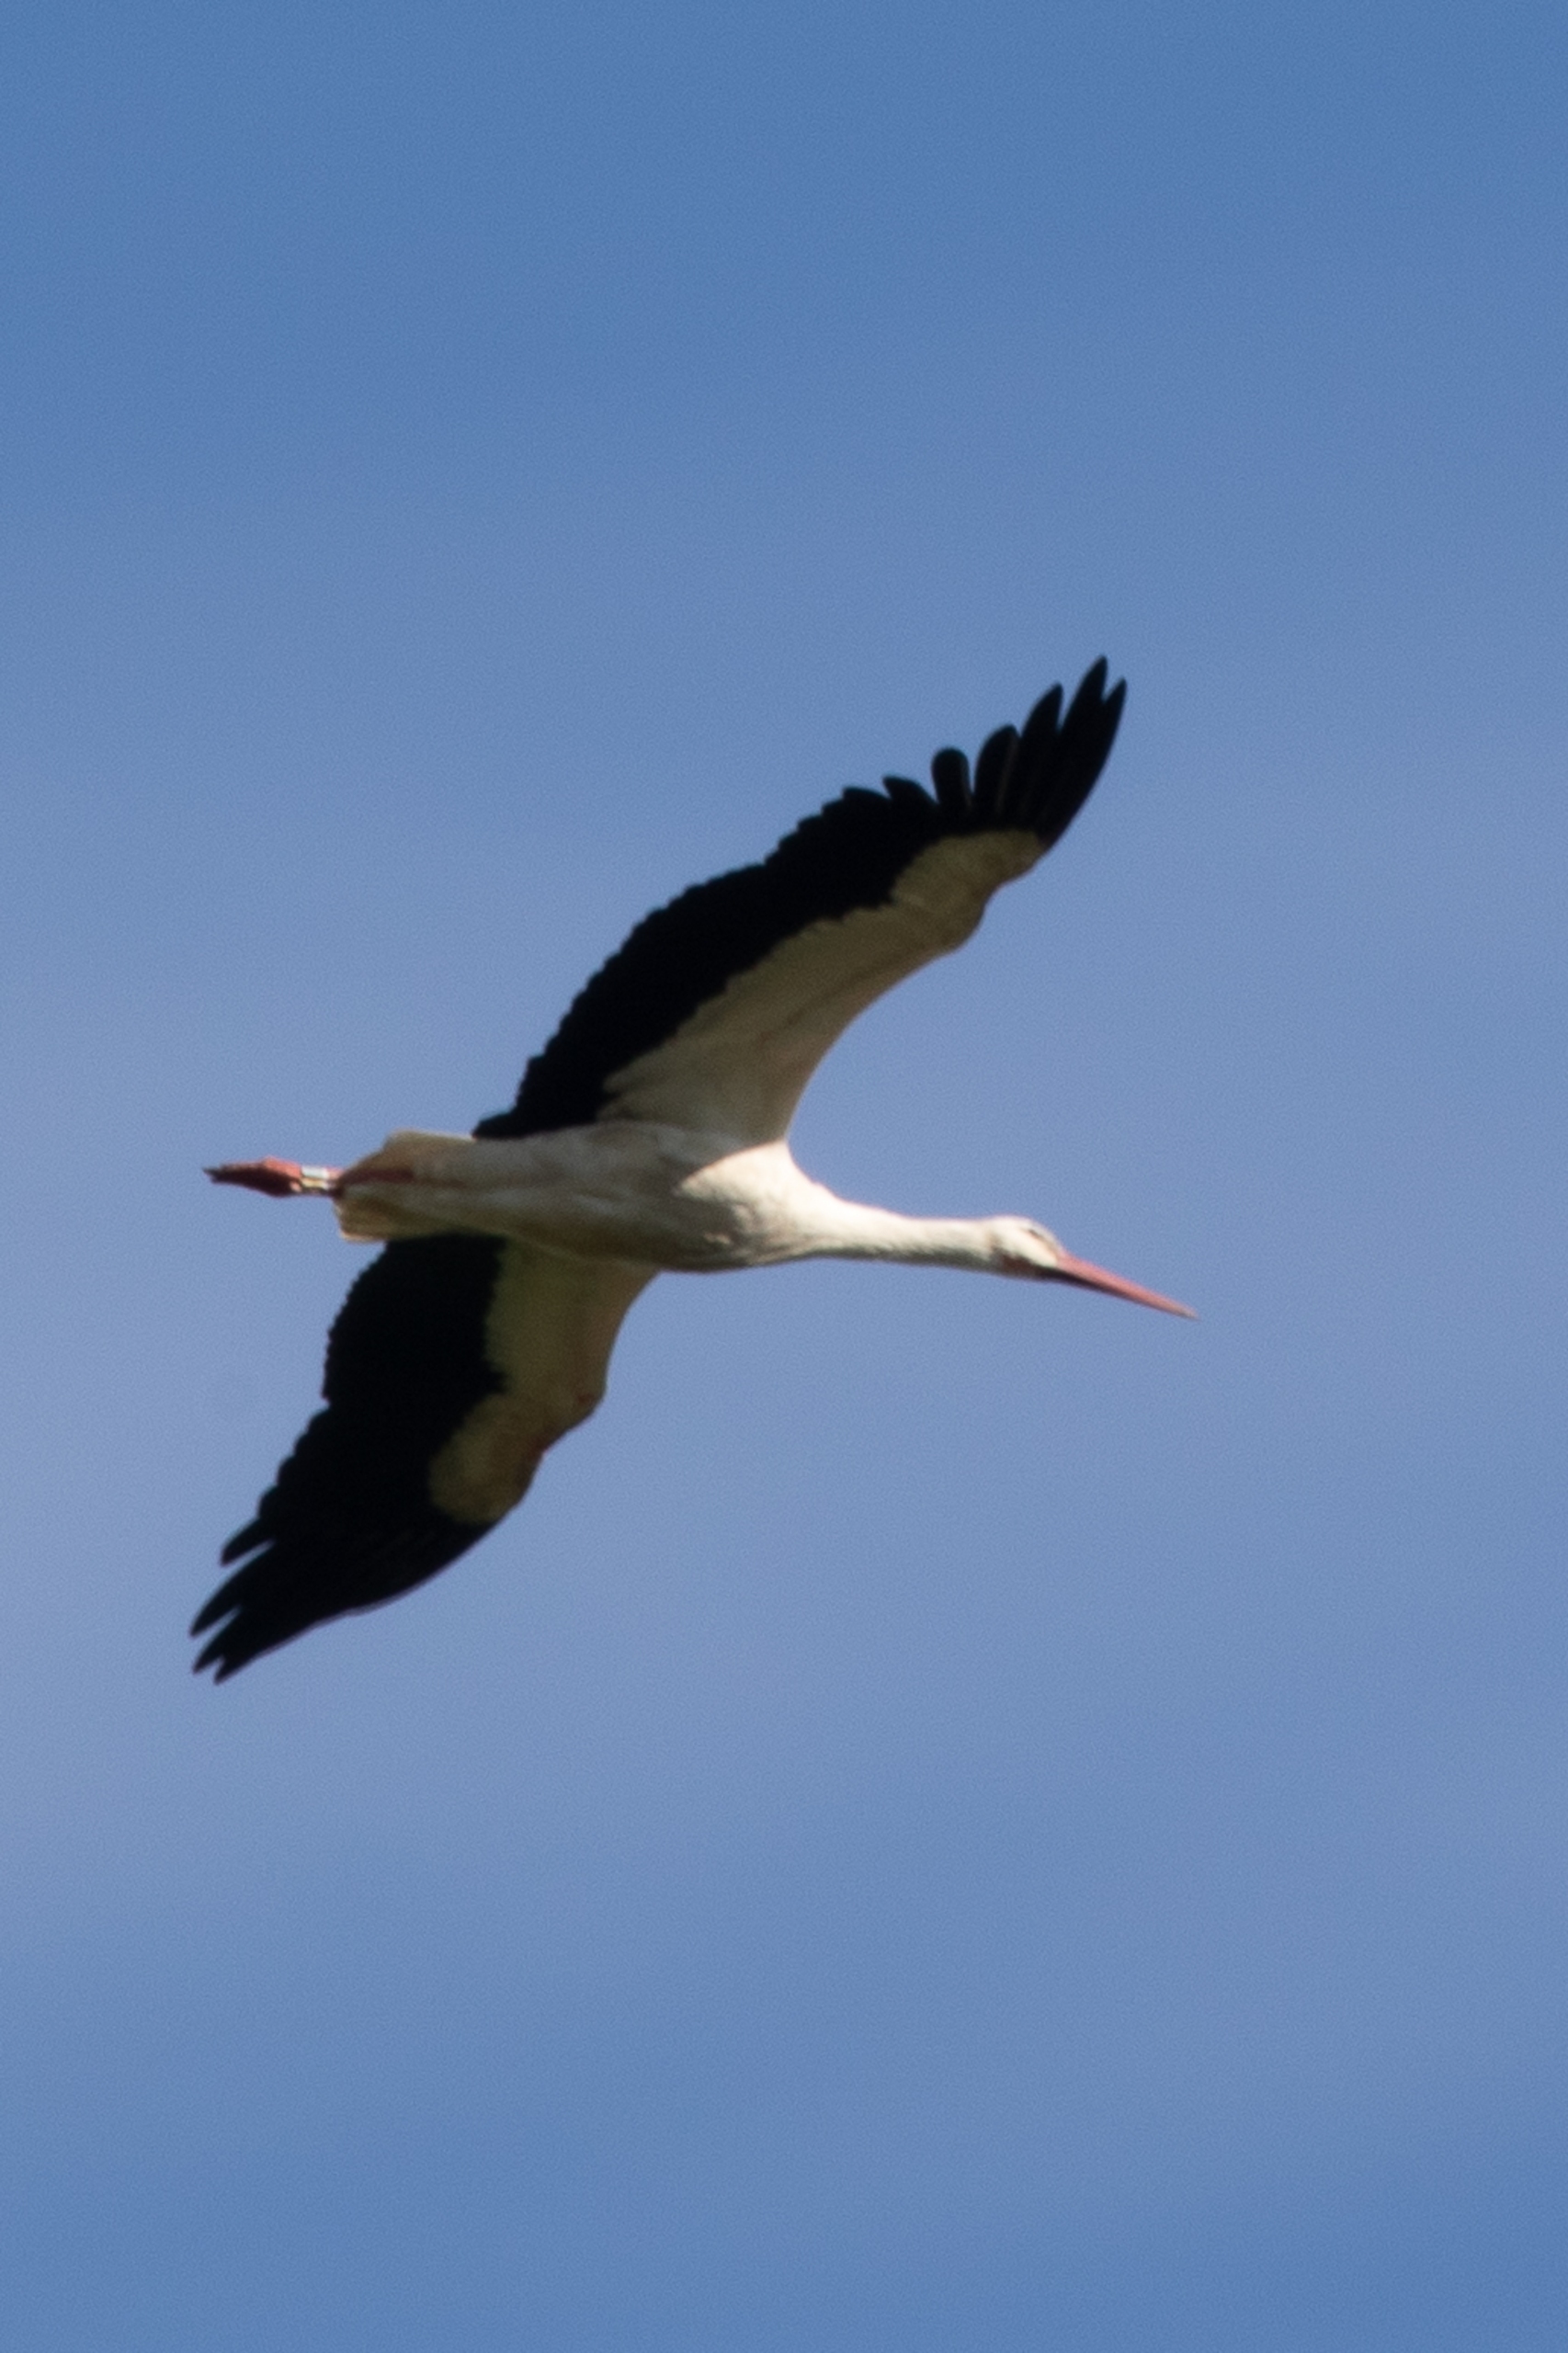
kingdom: Animalia
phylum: Chordata
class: Aves
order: Ciconiiformes
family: Ciconiidae
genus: Ciconia
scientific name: Ciconia ciconia
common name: Hvid stork
